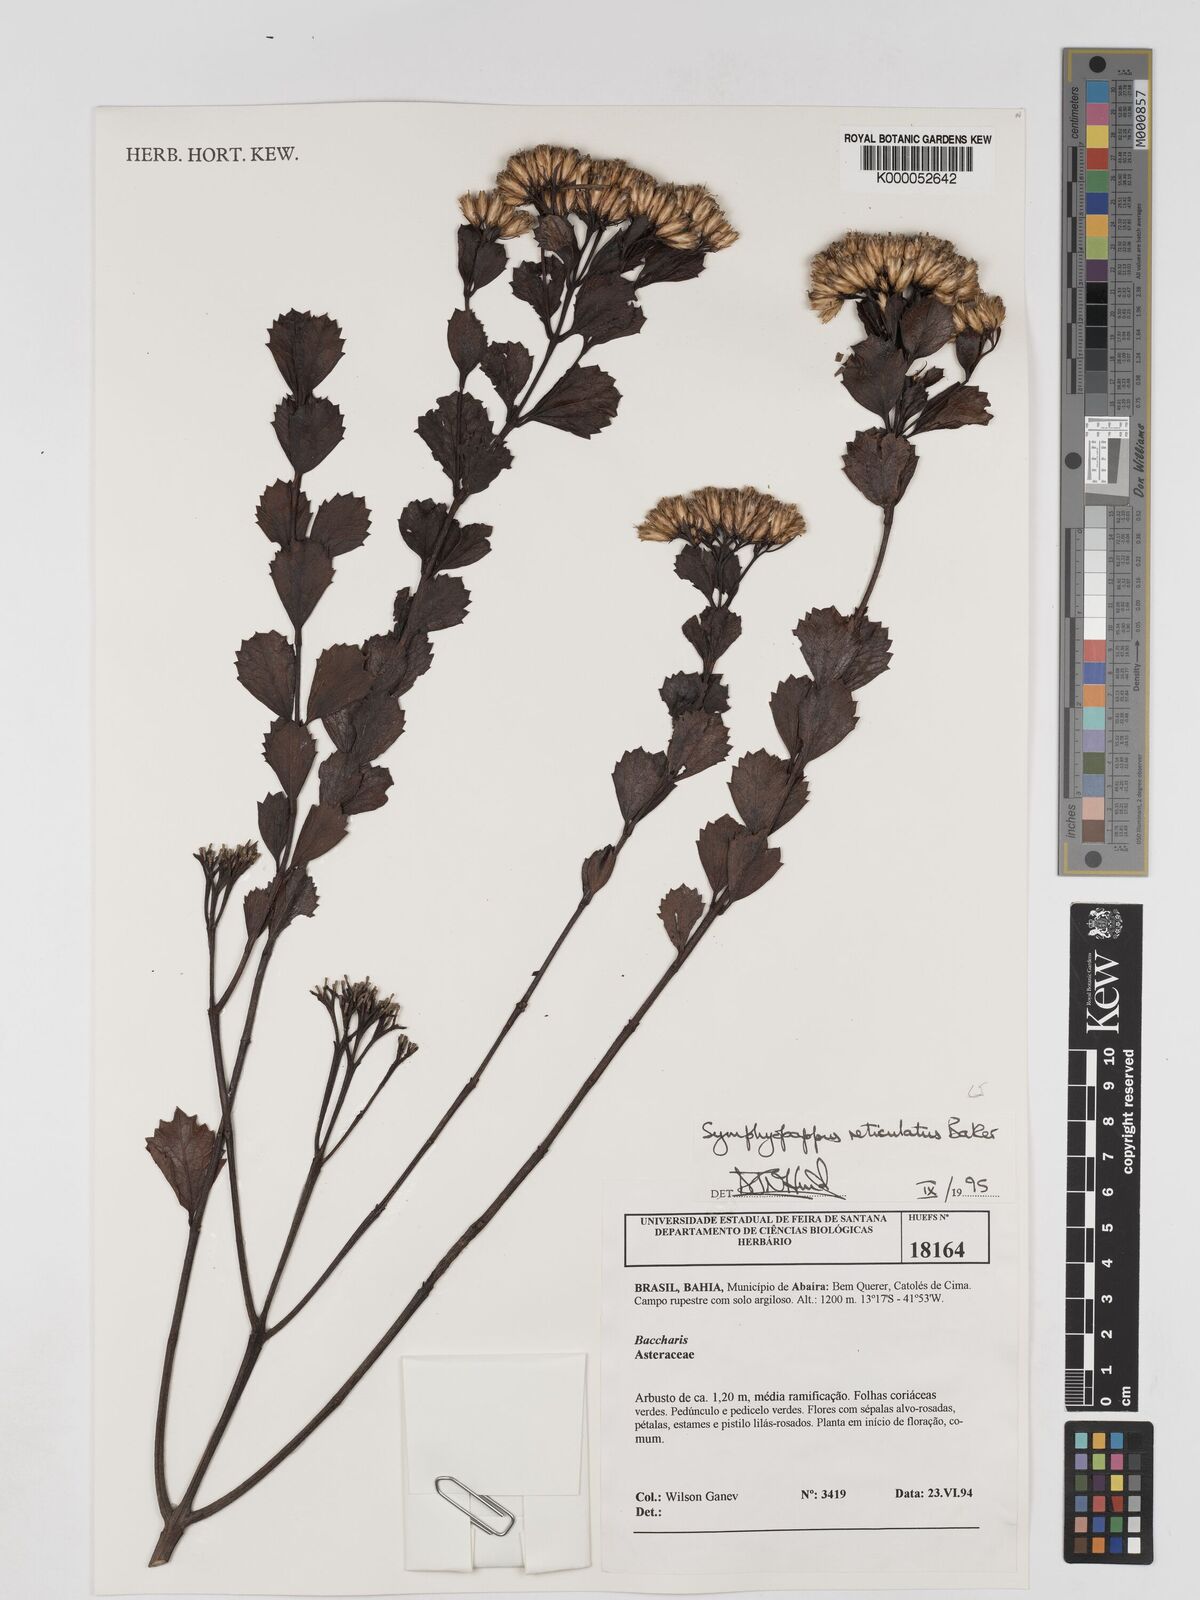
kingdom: Plantae
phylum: Tracheophyta
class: Magnoliopsida
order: Asterales
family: Asteraceae
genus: Symphyopappus
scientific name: Symphyopappus reticulatus
